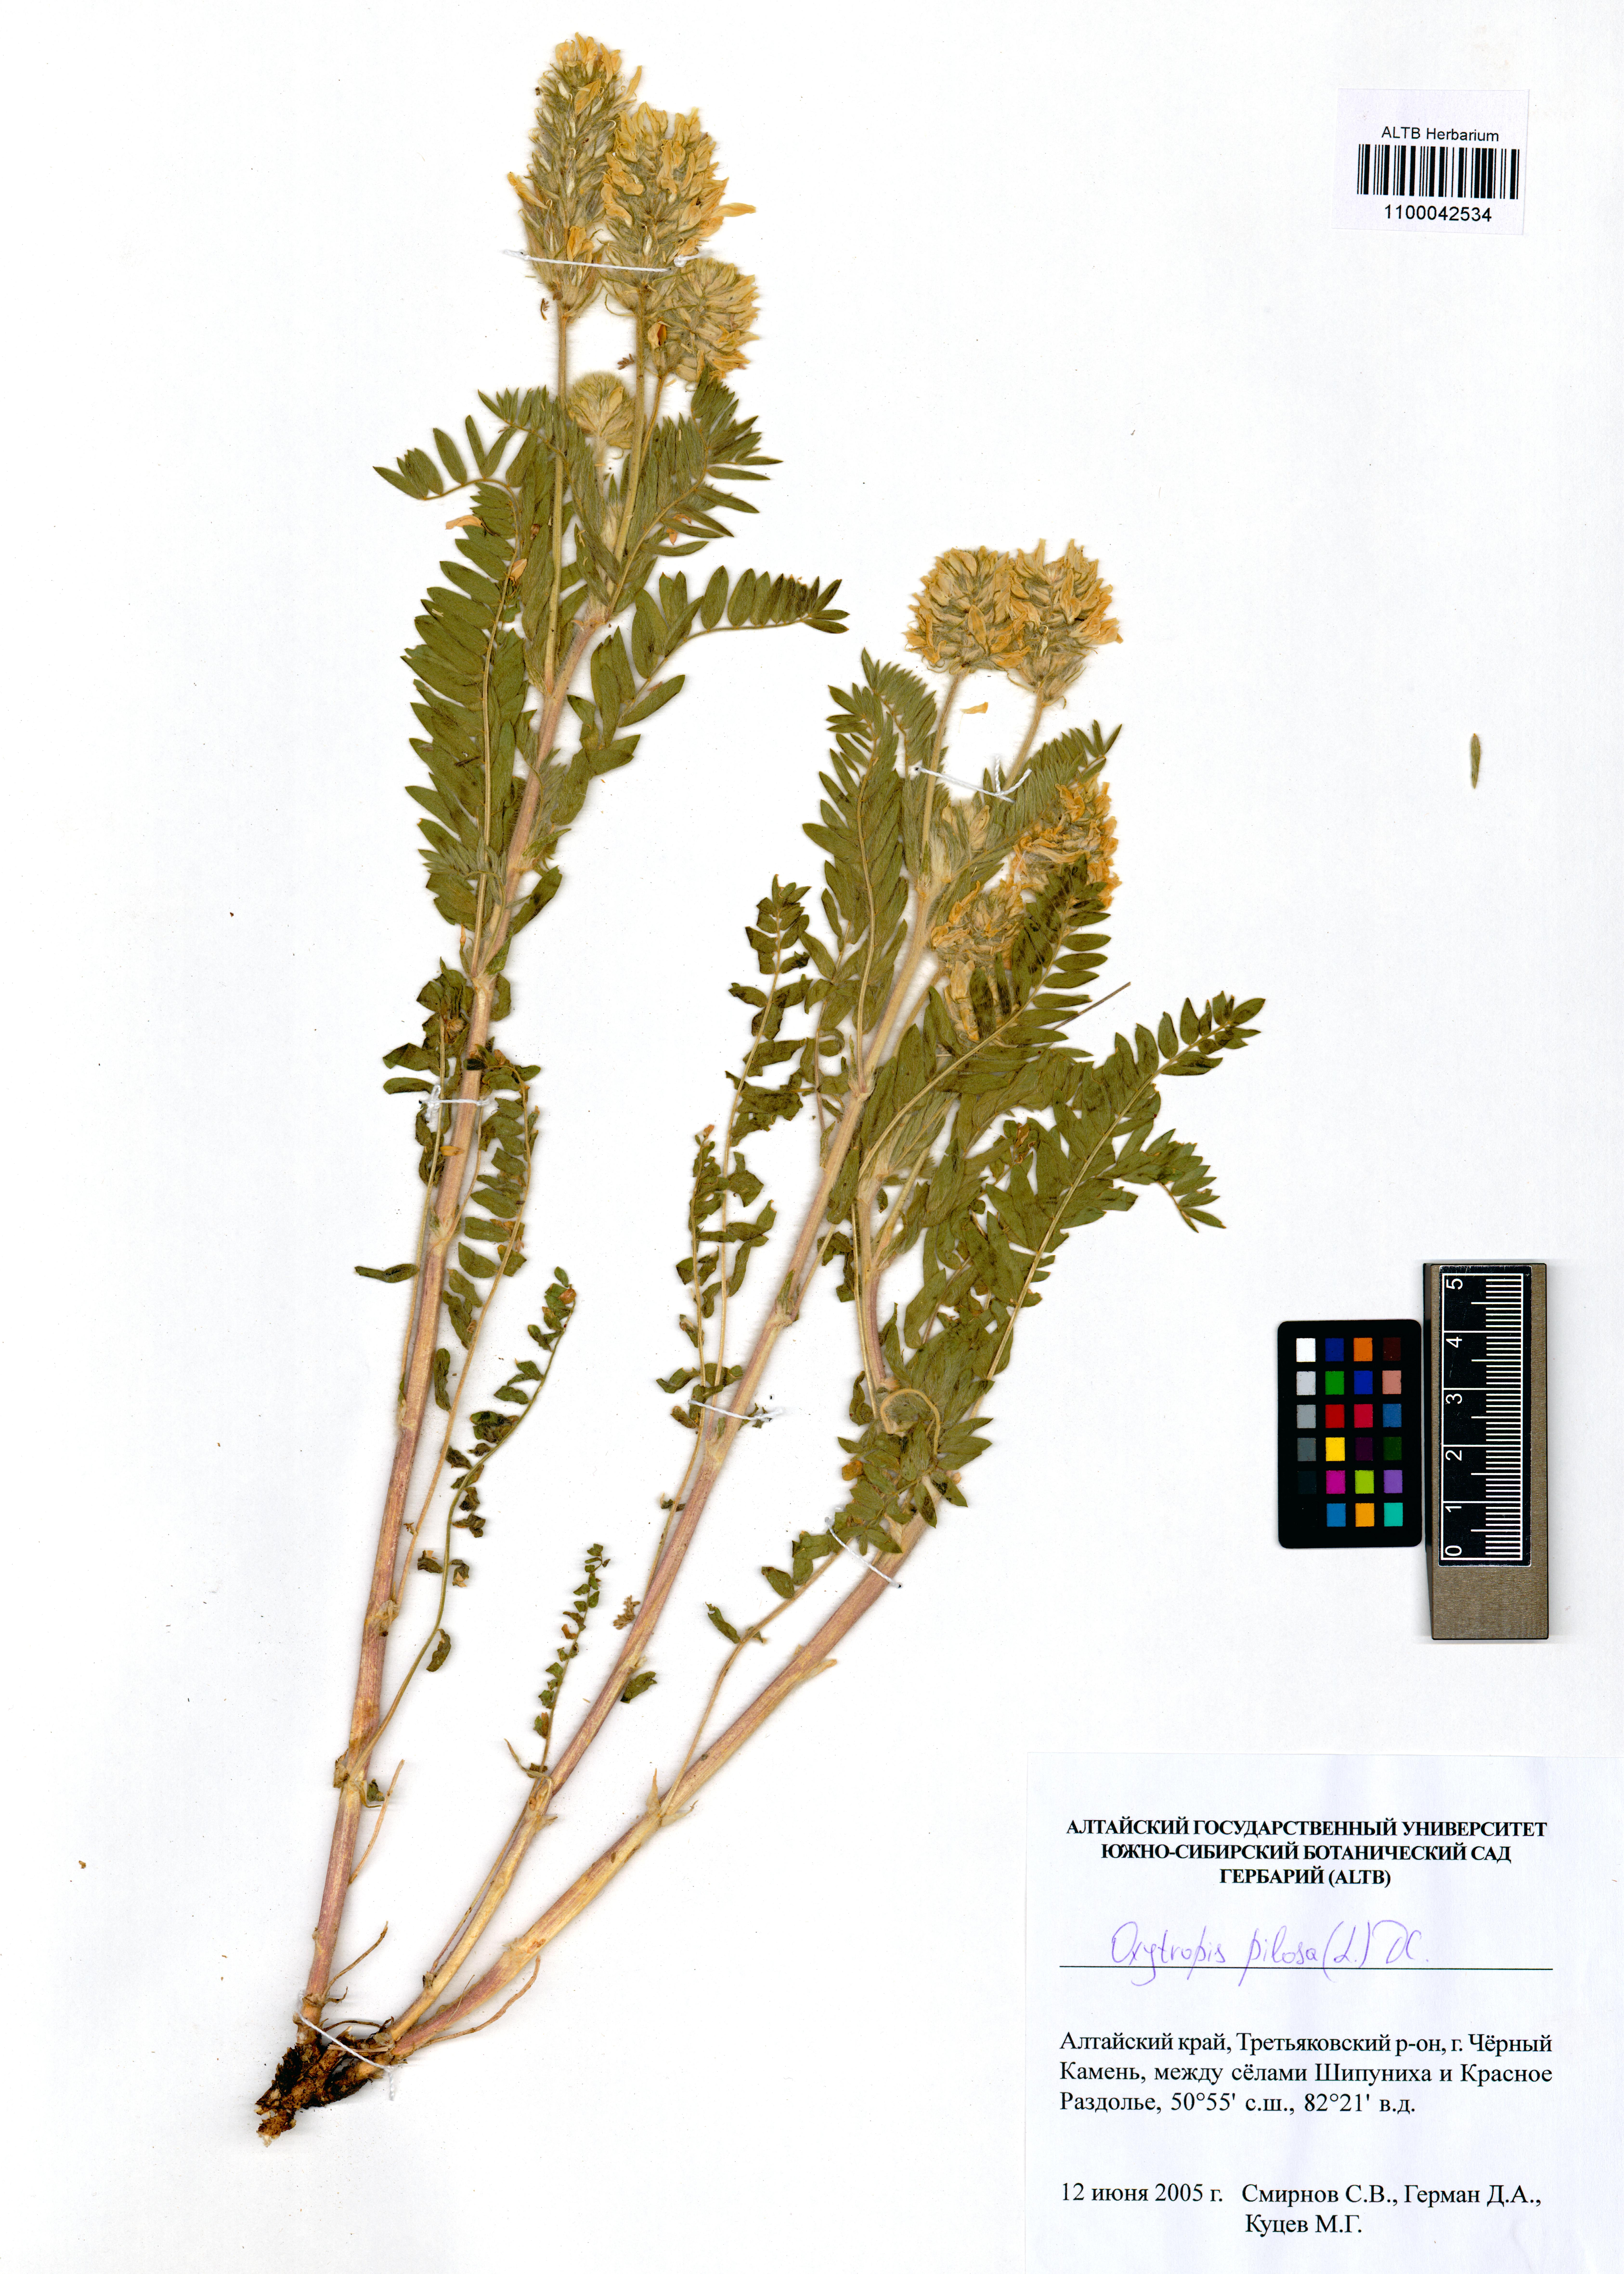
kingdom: Plantae
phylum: Tracheophyta
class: Magnoliopsida
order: Fabales
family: Fabaceae
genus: Oxytropis
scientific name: Oxytropis pilosa
